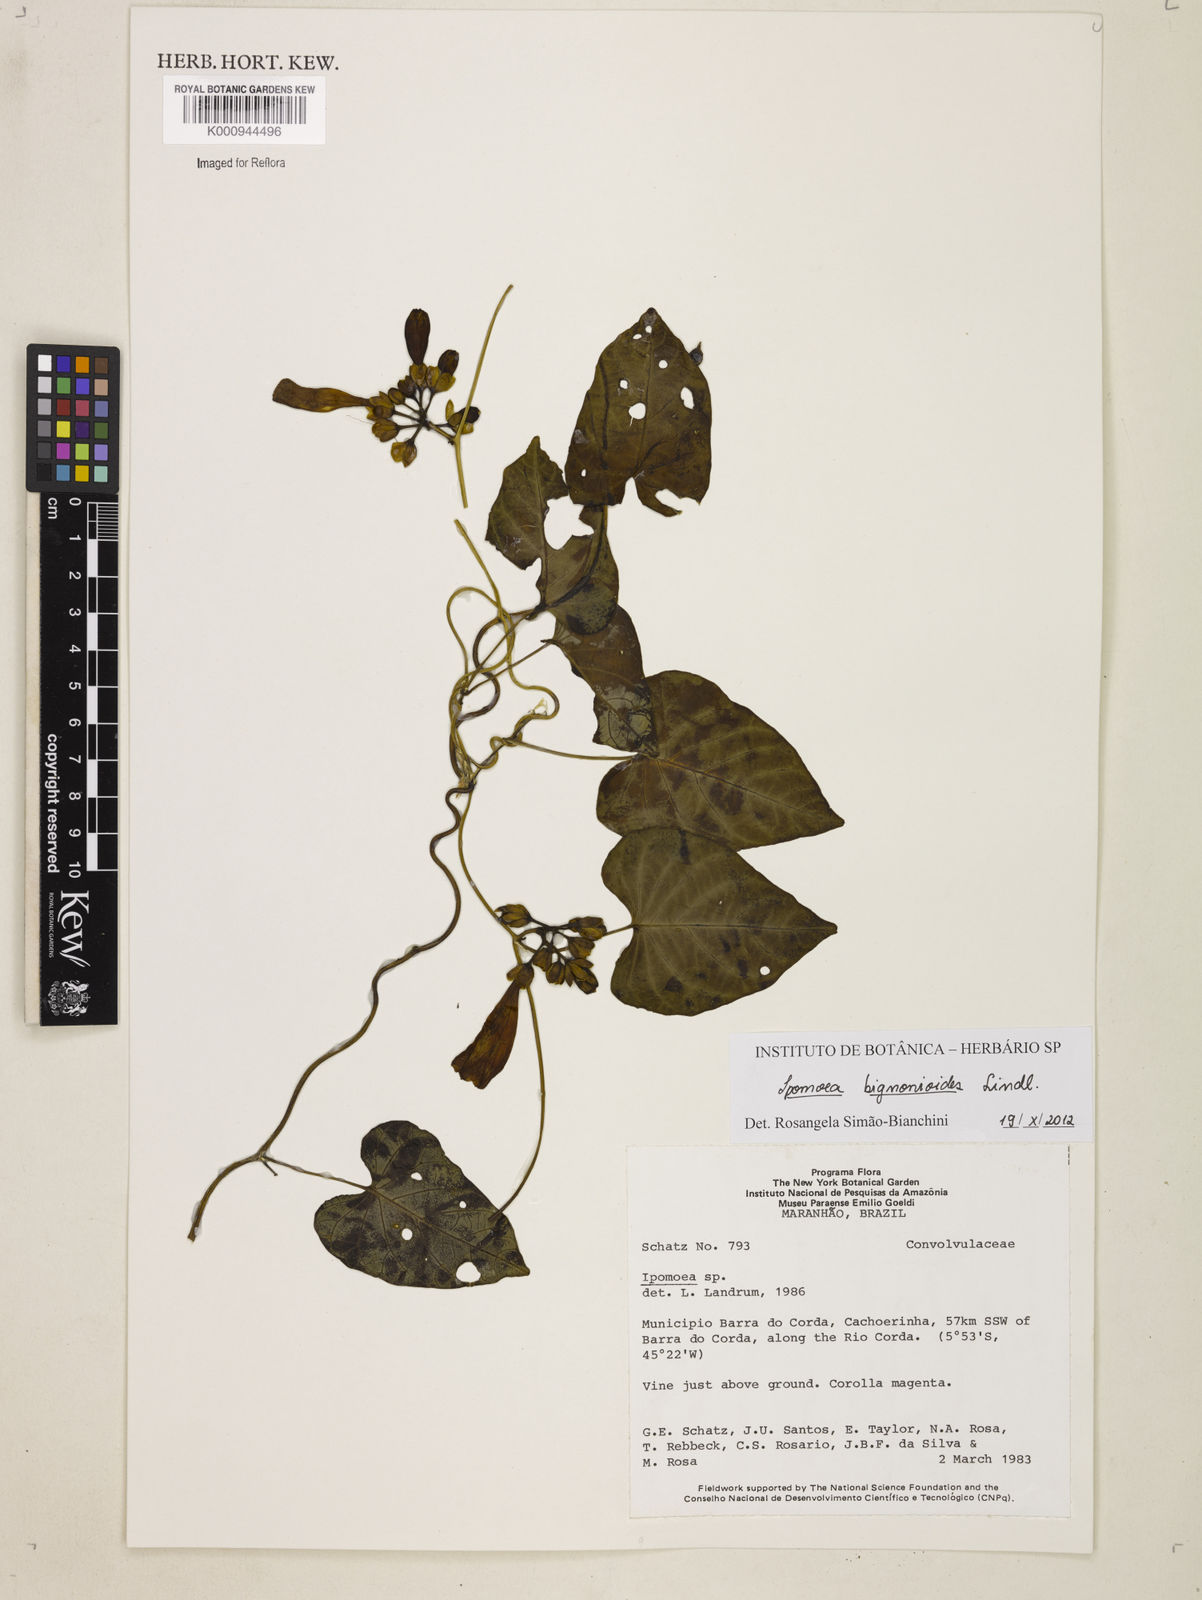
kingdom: Plantae
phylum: Tracheophyta
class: Magnoliopsida
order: Solanales
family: Convolvulaceae
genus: Ipomoea
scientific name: Ipomoea mauritiana
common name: Mauritanian convolvulus
